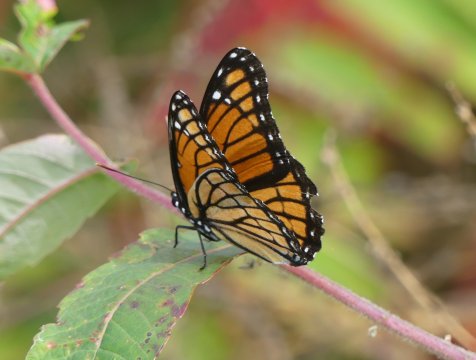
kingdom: Animalia
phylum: Arthropoda
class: Insecta
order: Lepidoptera
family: Nymphalidae
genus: Limenitis
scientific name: Limenitis archippus
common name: Viceroy
